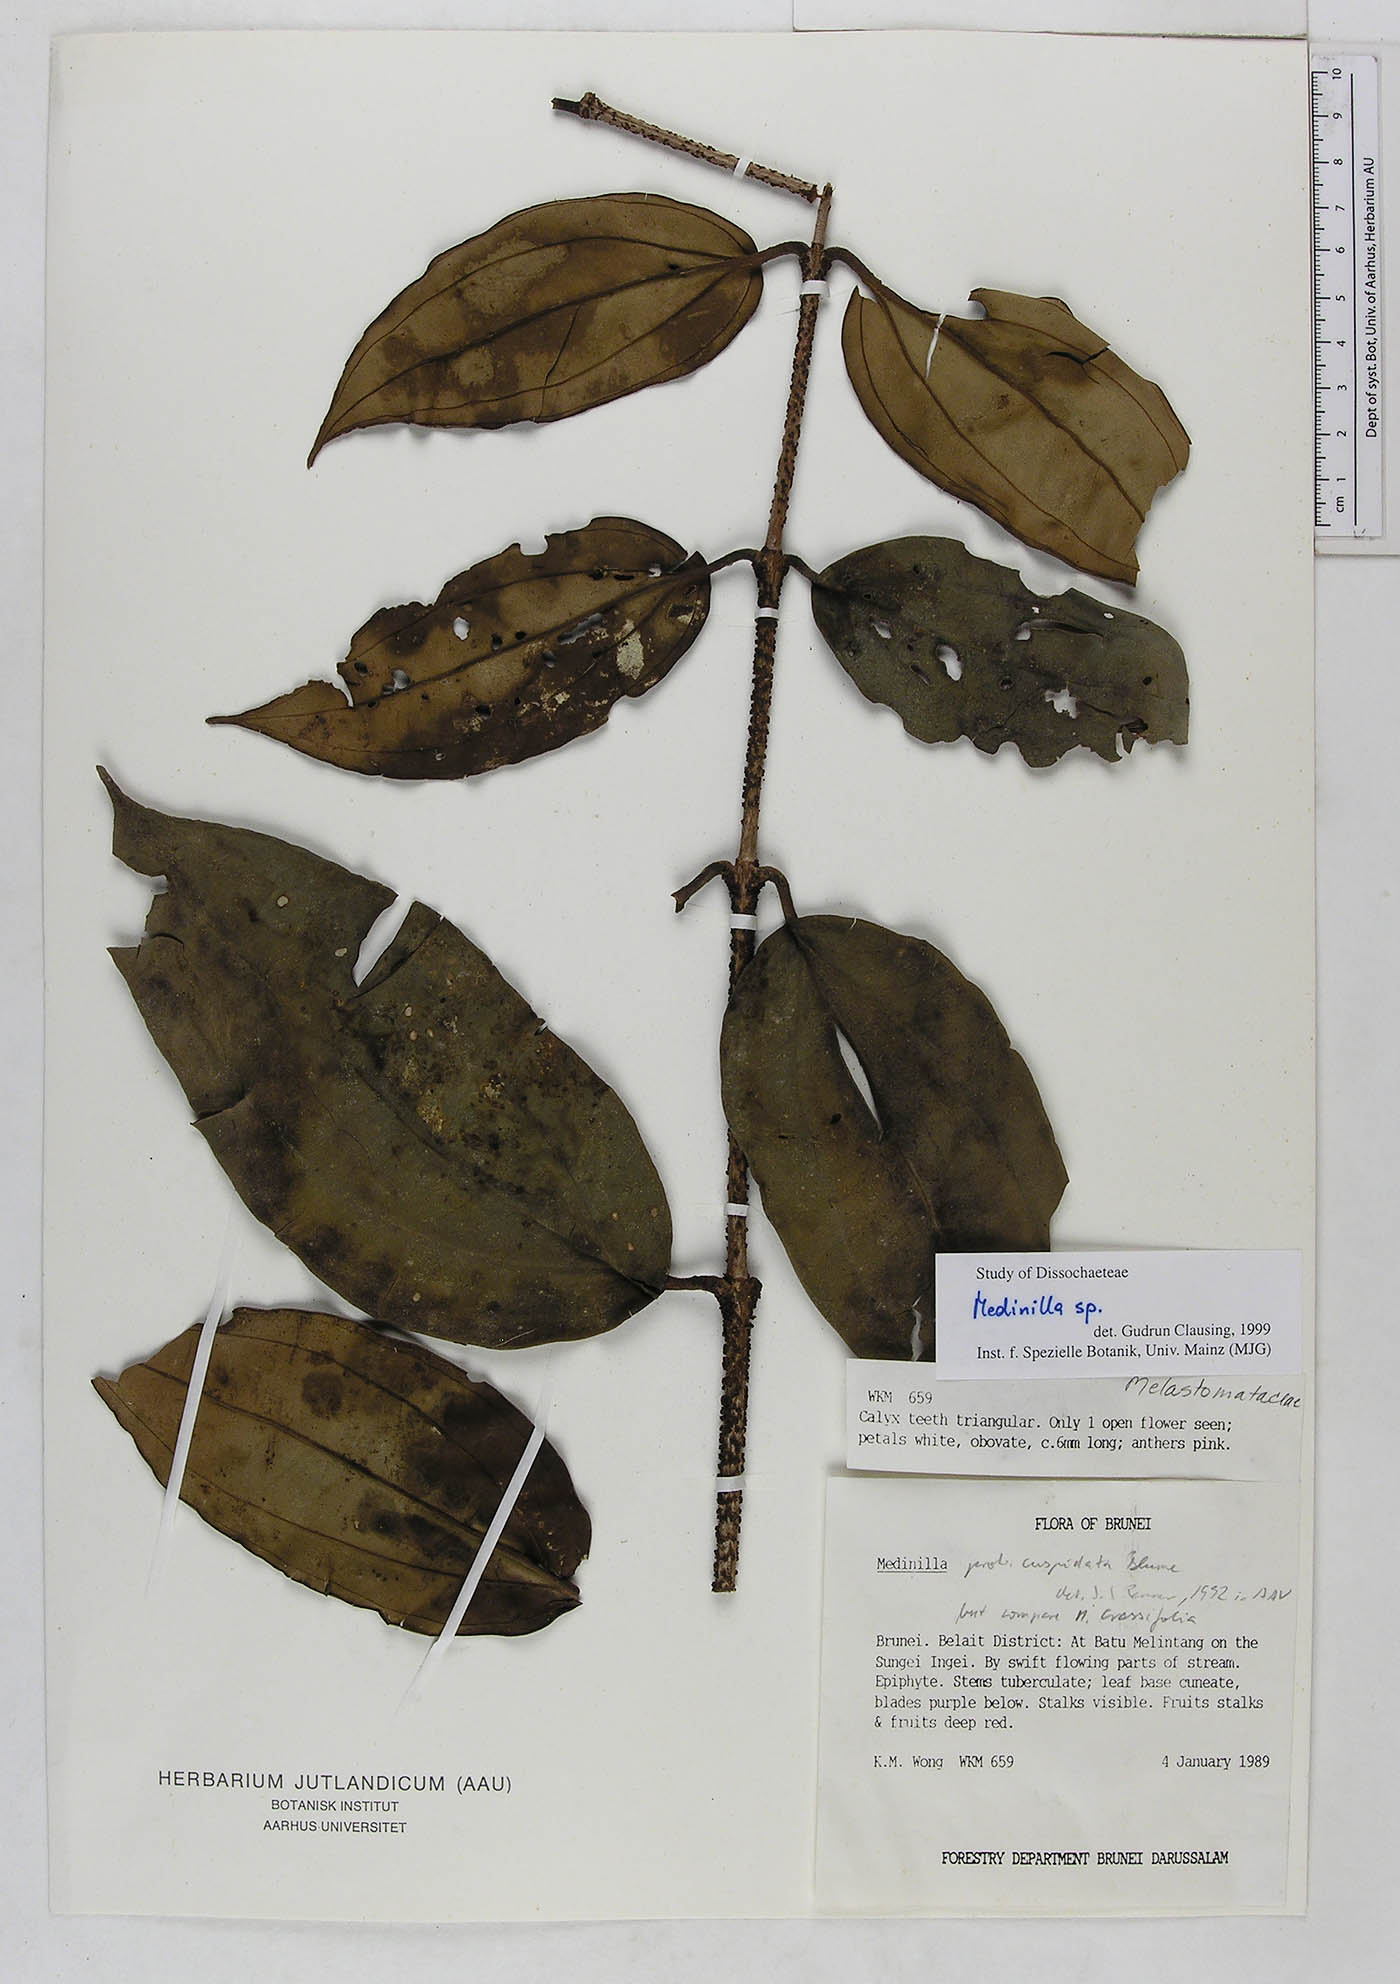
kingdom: Plantae
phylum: Tracheophyta
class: Magnoliopsida
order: Myrtales
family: Melastomataceae
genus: Medinilla
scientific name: Medinilla
